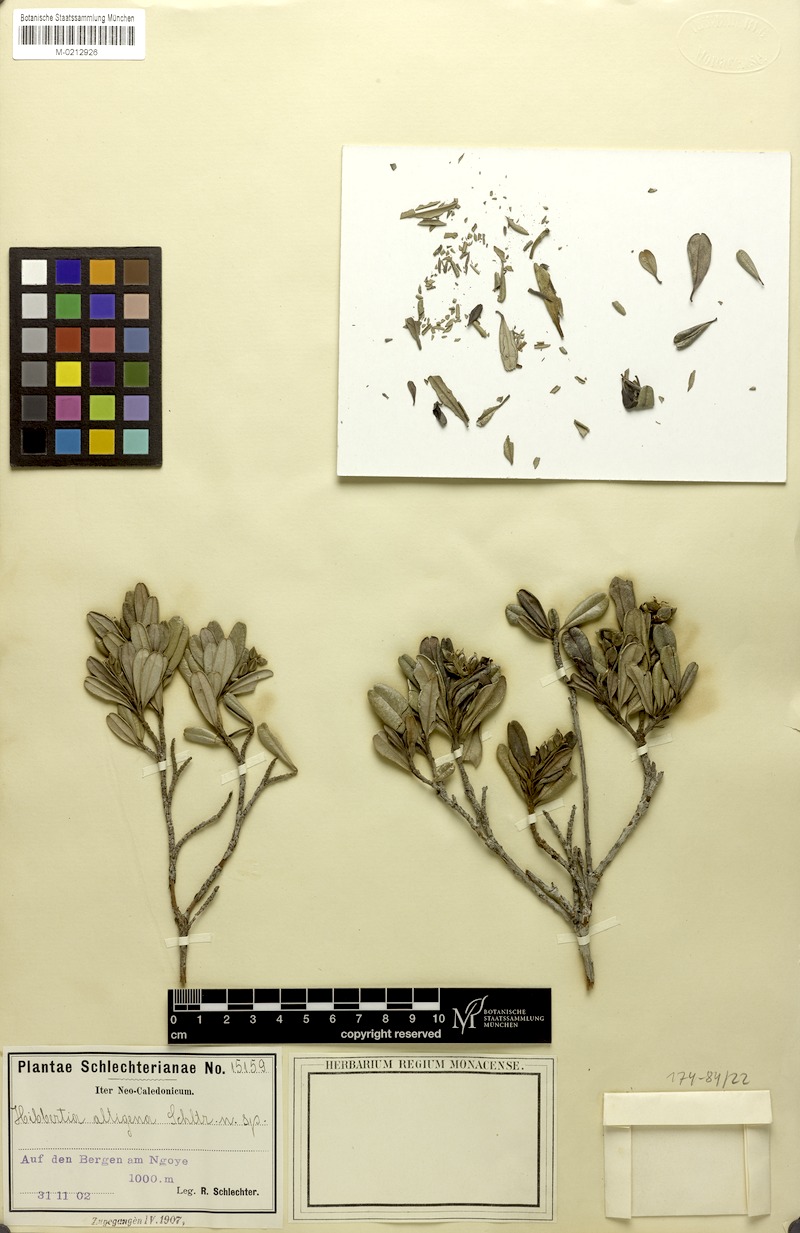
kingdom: Plantae
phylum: Tracheophyta
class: Magnoliopsida
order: Dilleniales
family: Dilleniaceae
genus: Hibbertia
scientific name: Hibbertia altigena
